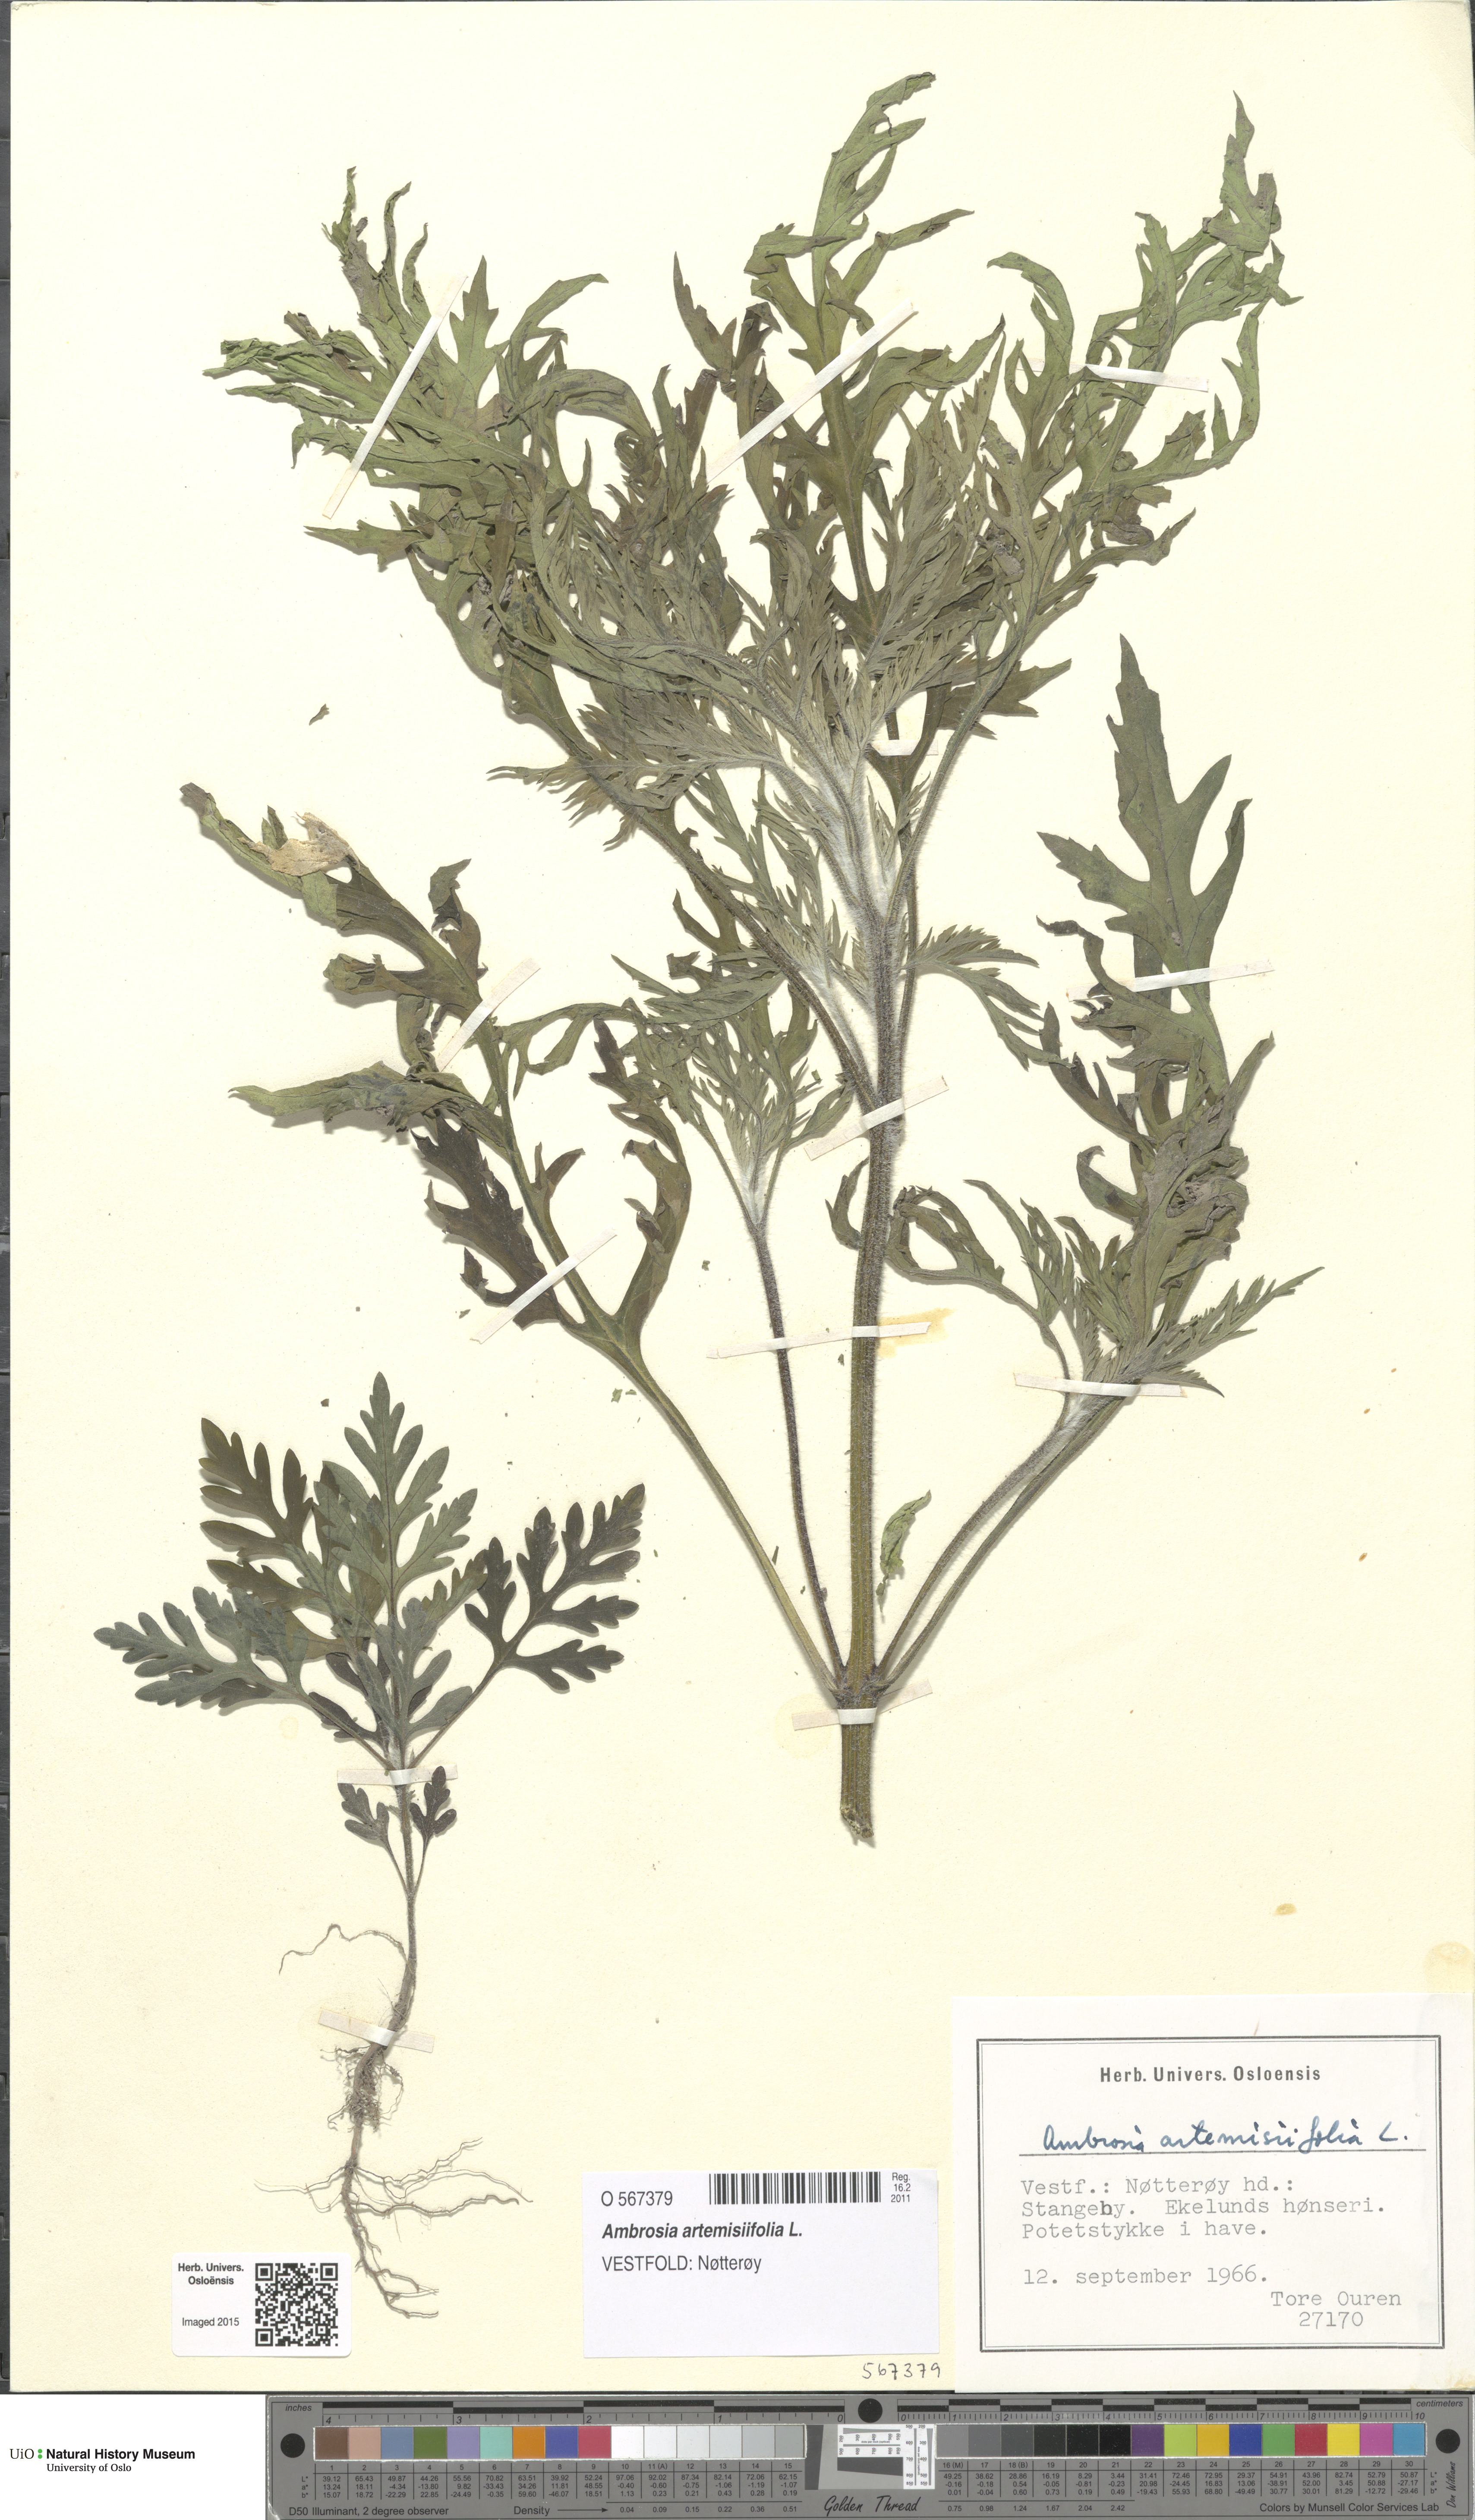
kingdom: Plantae
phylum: Tracheophyta
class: Magnoliopsida
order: Asterales
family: Asteraceae
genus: Ambrosia
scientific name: Ambrosia artemisiifolia
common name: Annual ragweed
